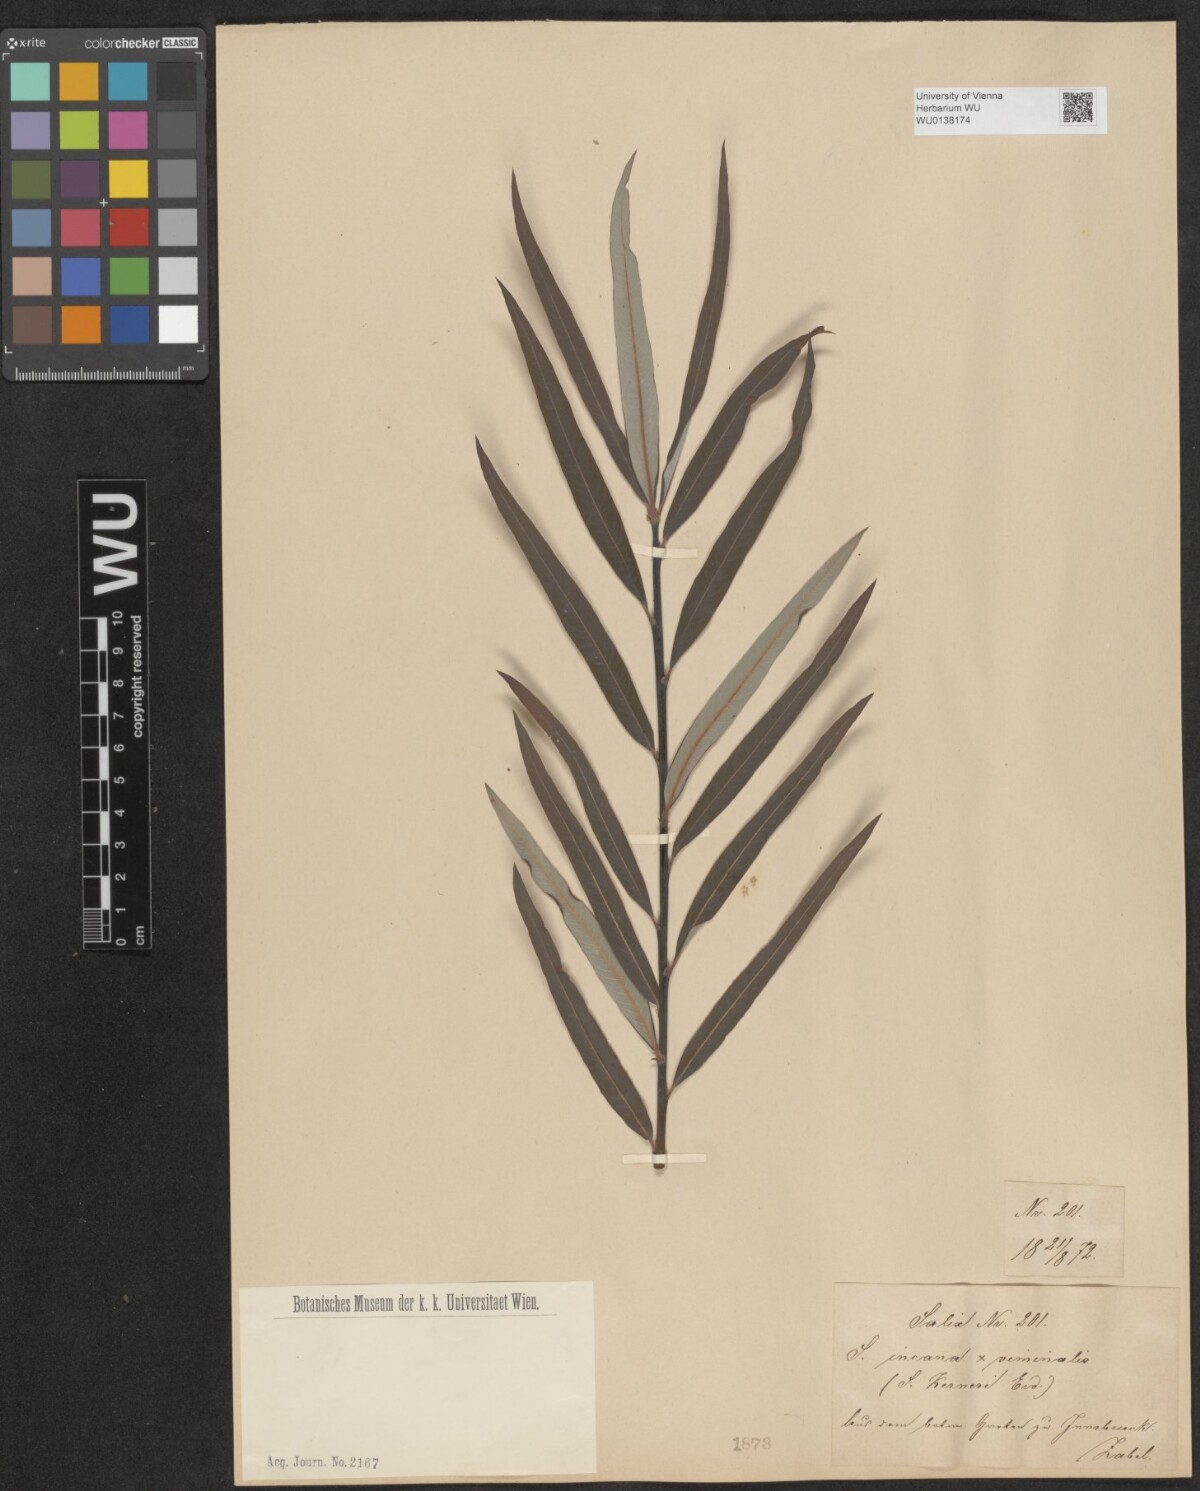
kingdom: Plantae
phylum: Tracheophyta
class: Magnoliopsida
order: Malpighiales
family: Salicaceae
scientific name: Salicaceae
